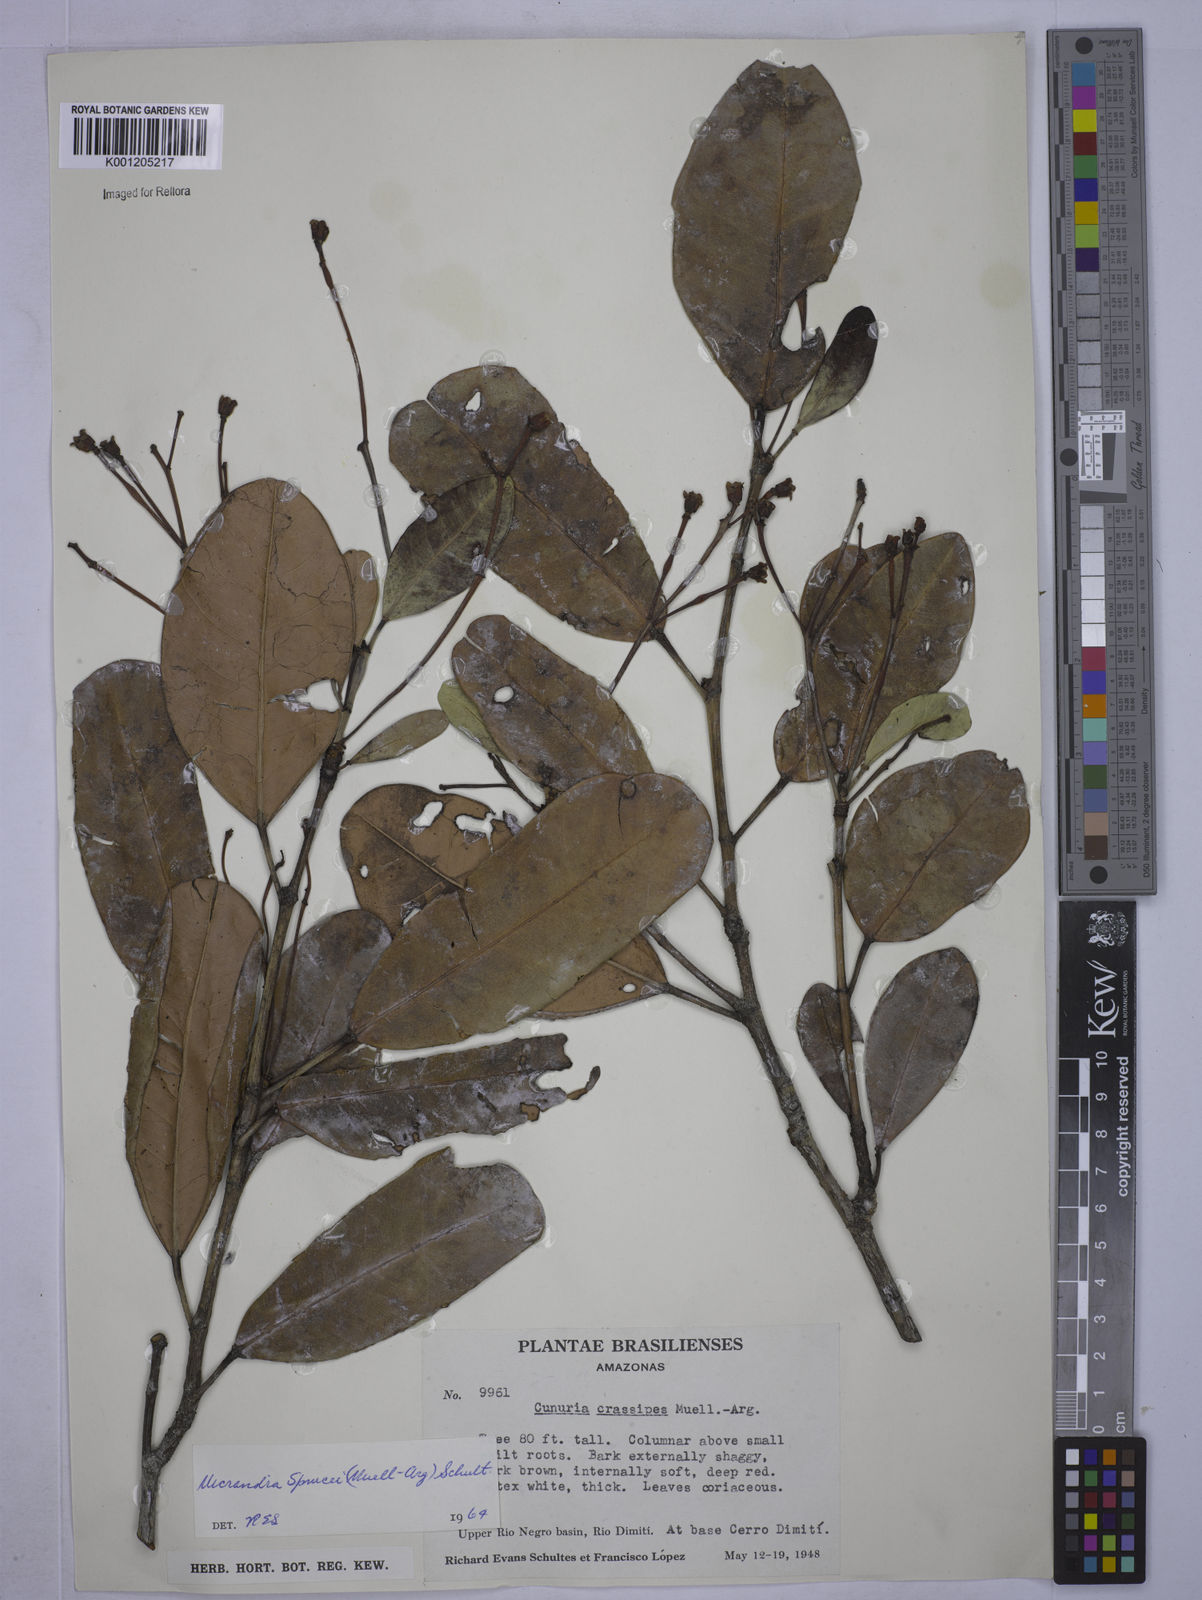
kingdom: Plantae
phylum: Tracheophyta
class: Magnoliopsida
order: Malpighiales
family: Euphorbiaceae
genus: Micrandra
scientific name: Micrandra
